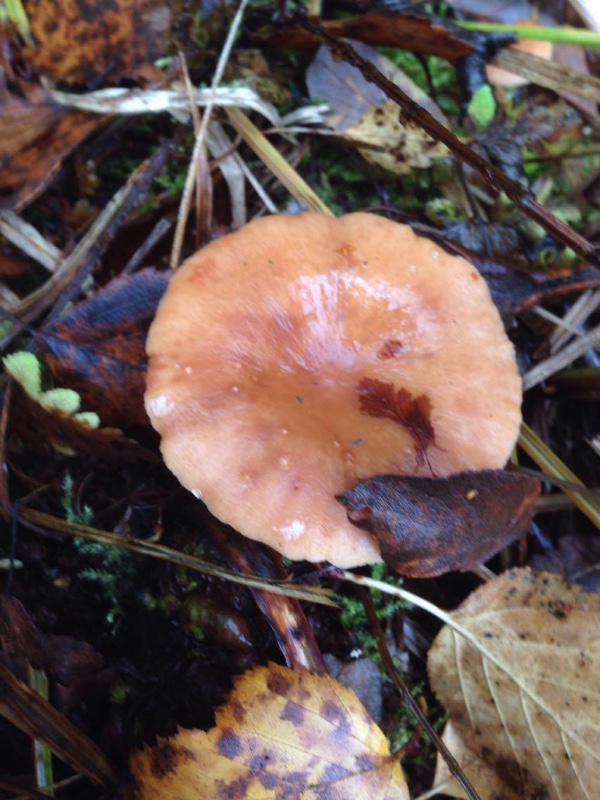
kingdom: Fungi
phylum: Basidiomycota
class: Agaricomycetes
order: Russulales
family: Russulaceae
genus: Lactarius
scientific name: Lactarius helvus
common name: mose-mælkehat
